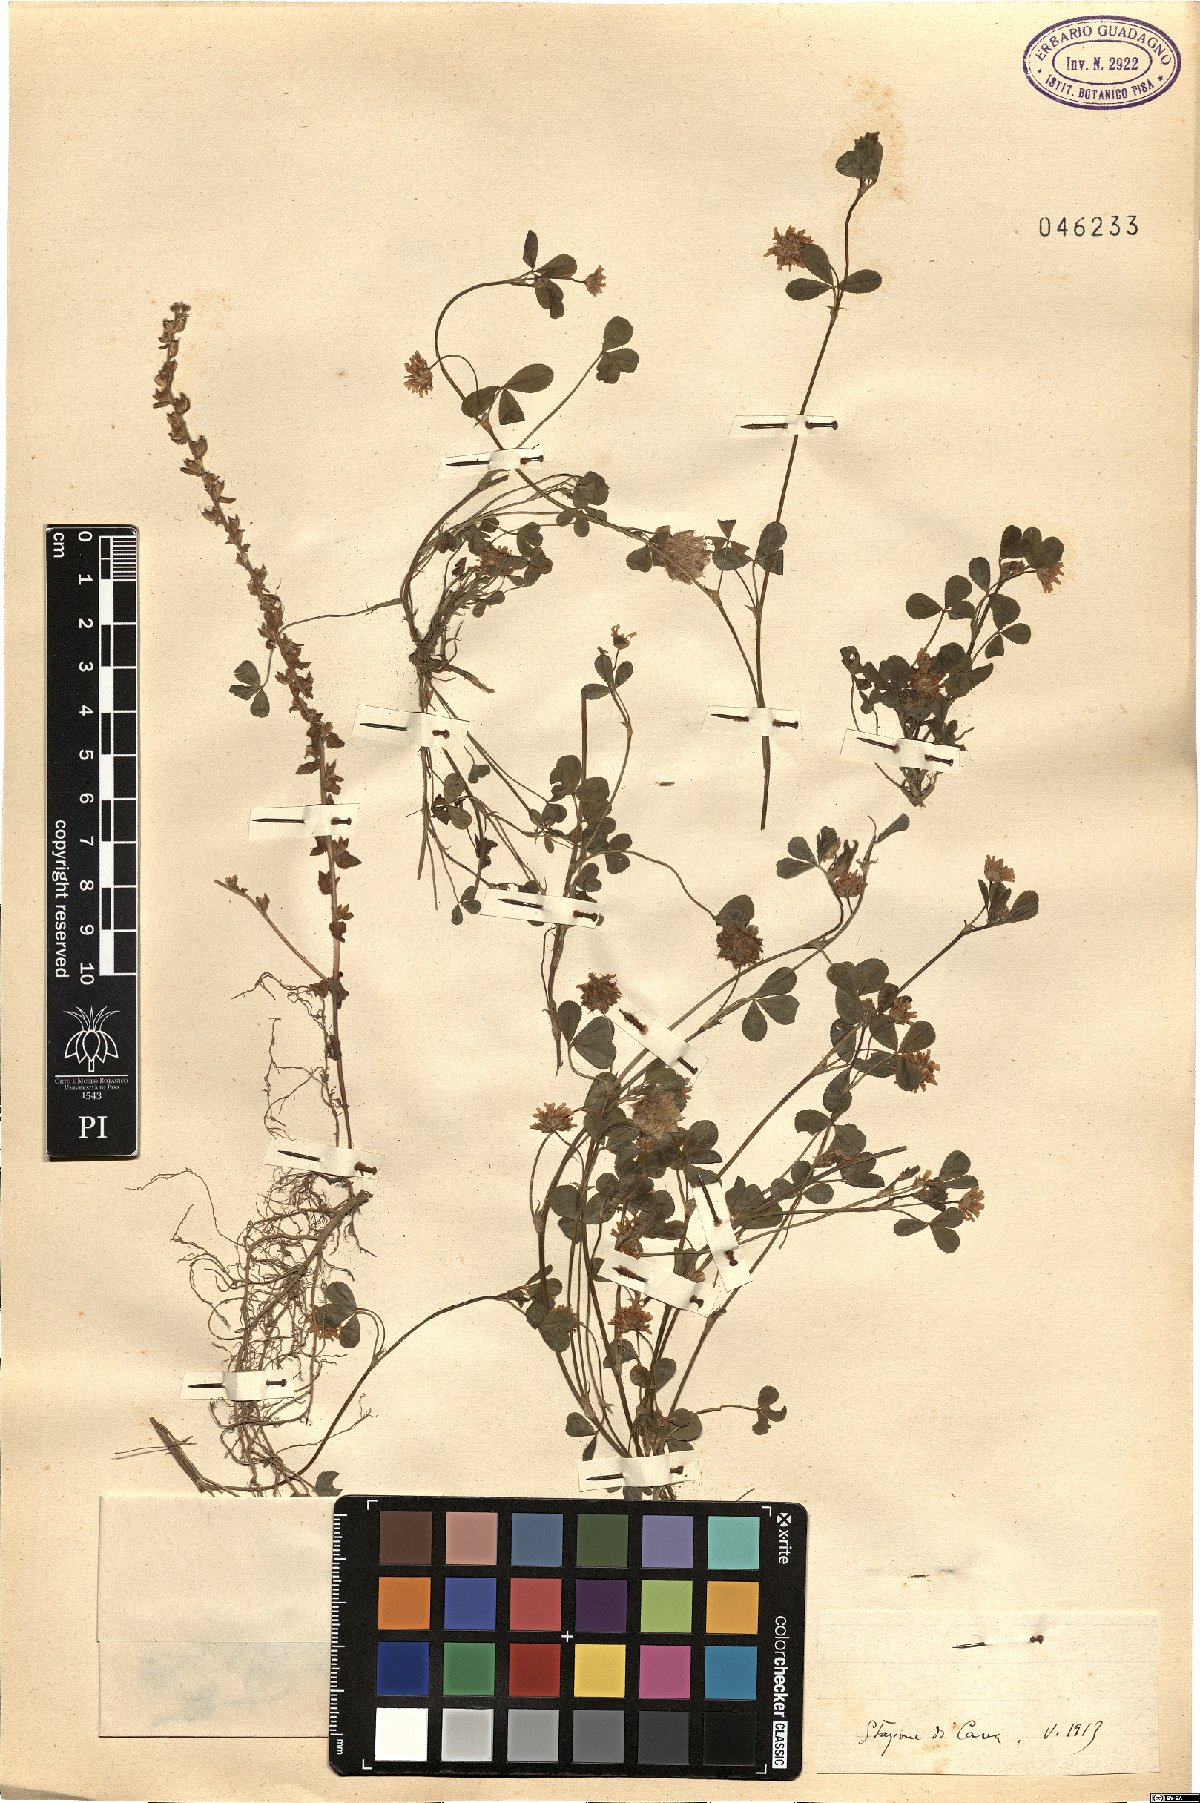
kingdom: Plantae
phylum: Tracheophyta
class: Magnoliopsida
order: Fabales
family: Fabaceae
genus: Trifolium
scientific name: Trifolium
